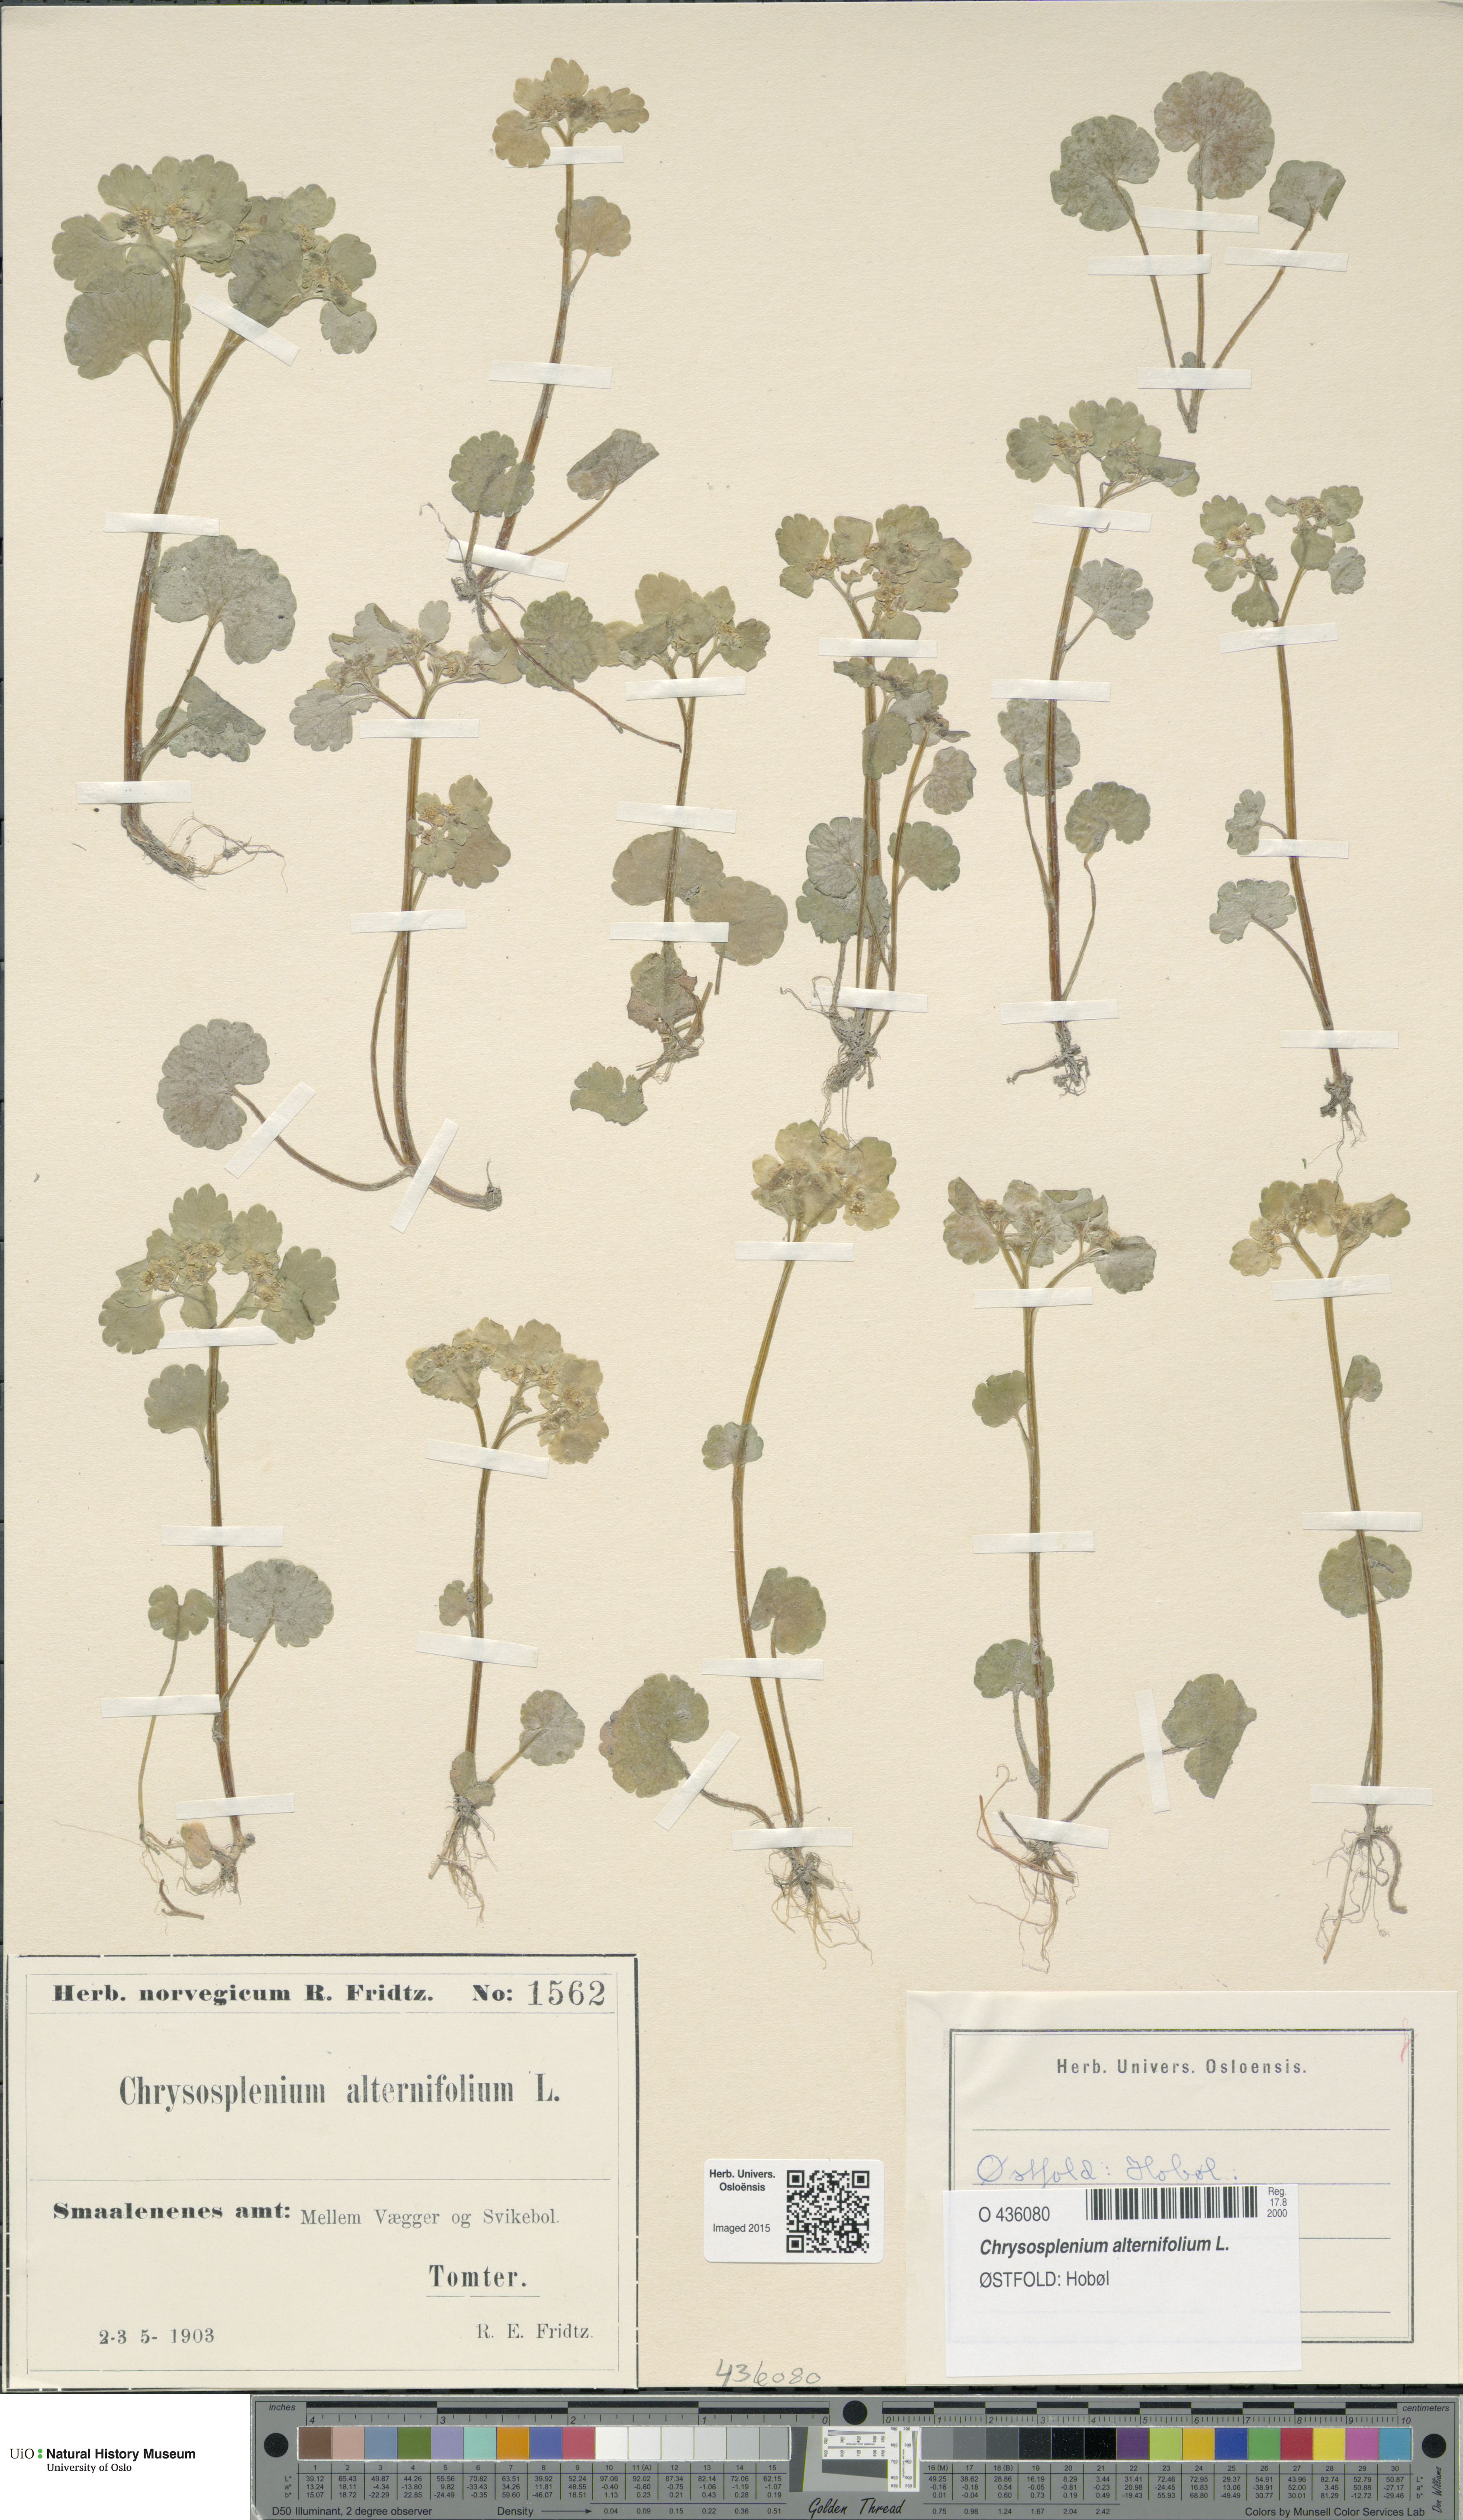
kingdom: Plantae
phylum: Tracheophyta
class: Magnoliopsida
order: Saxifragales
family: Saxifragaceae
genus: Chrysosplenium
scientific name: Chrysosplenium alternifolium
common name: Alternate-leaved golden-saxifrage
